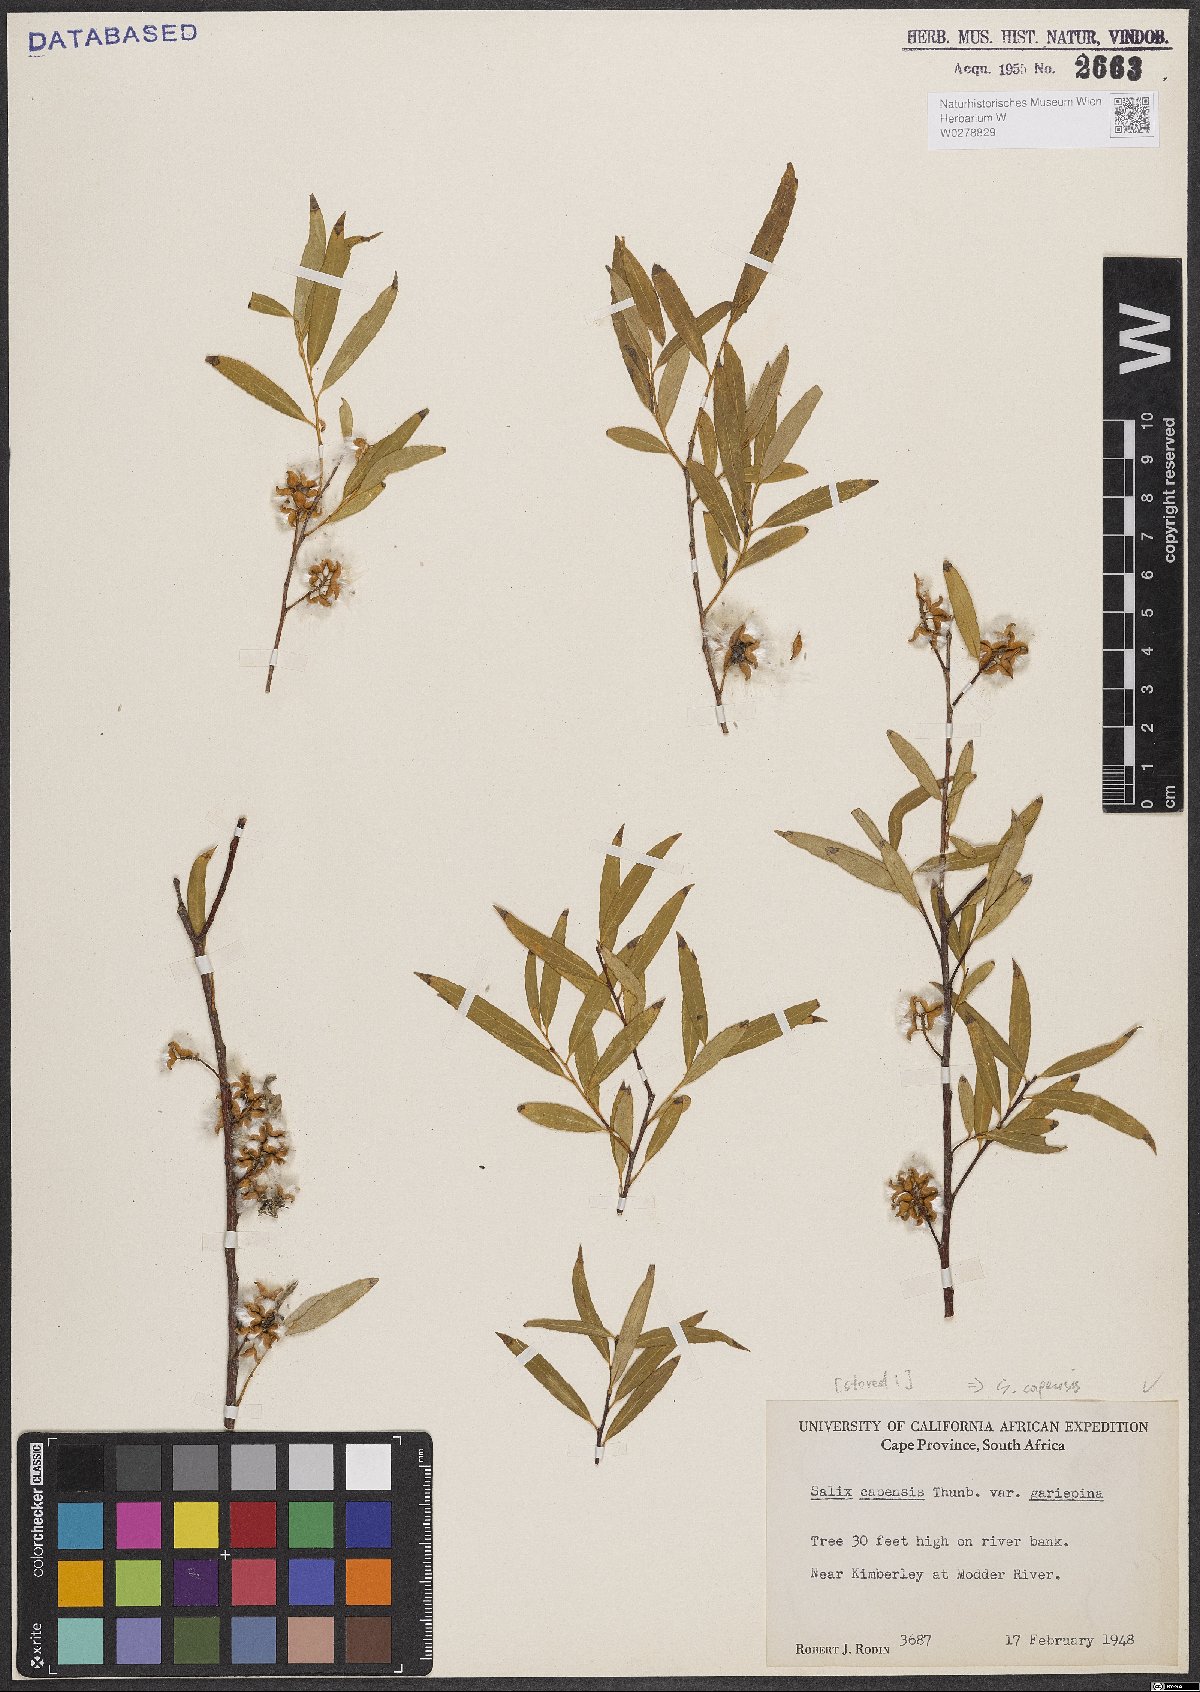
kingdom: Plantae
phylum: Tracheophyta
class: Magnoliopsida
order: Malpighiales
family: Salicaceae
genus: Salix
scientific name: Salix mucronata
